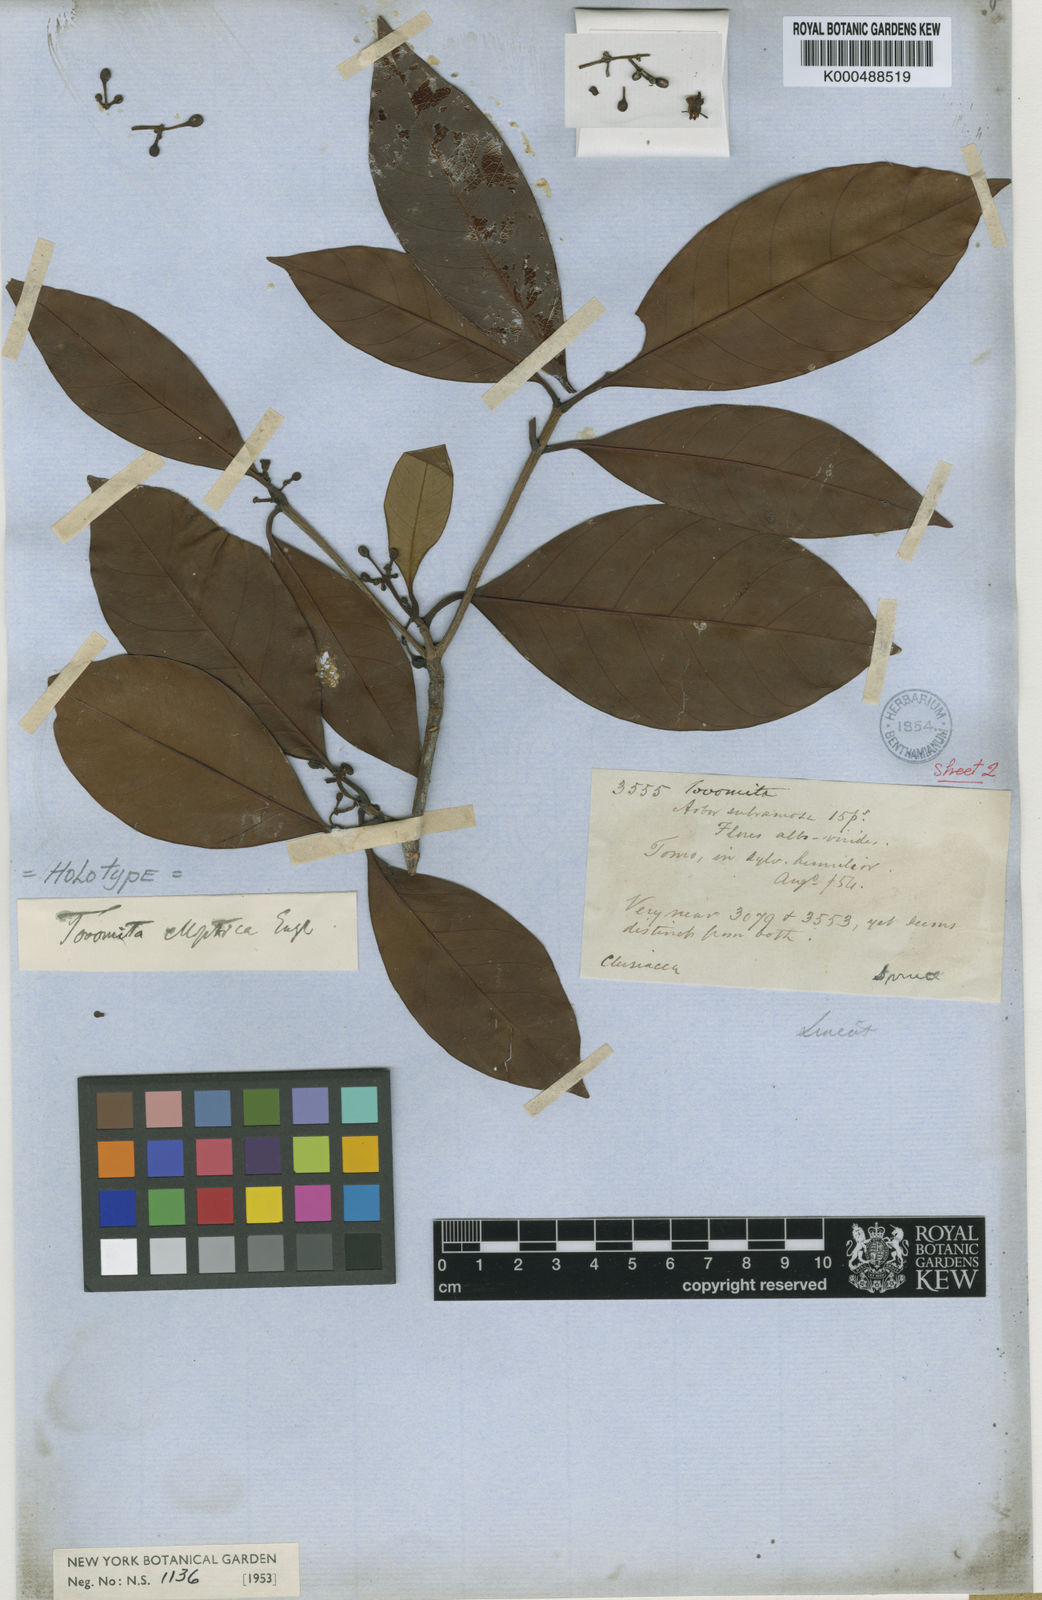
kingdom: Plantae
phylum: Tracheophyta
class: Magnoliopsida
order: Malpighiales
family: Clusiaceae
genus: Tovomita
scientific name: Tovomita elliptica
